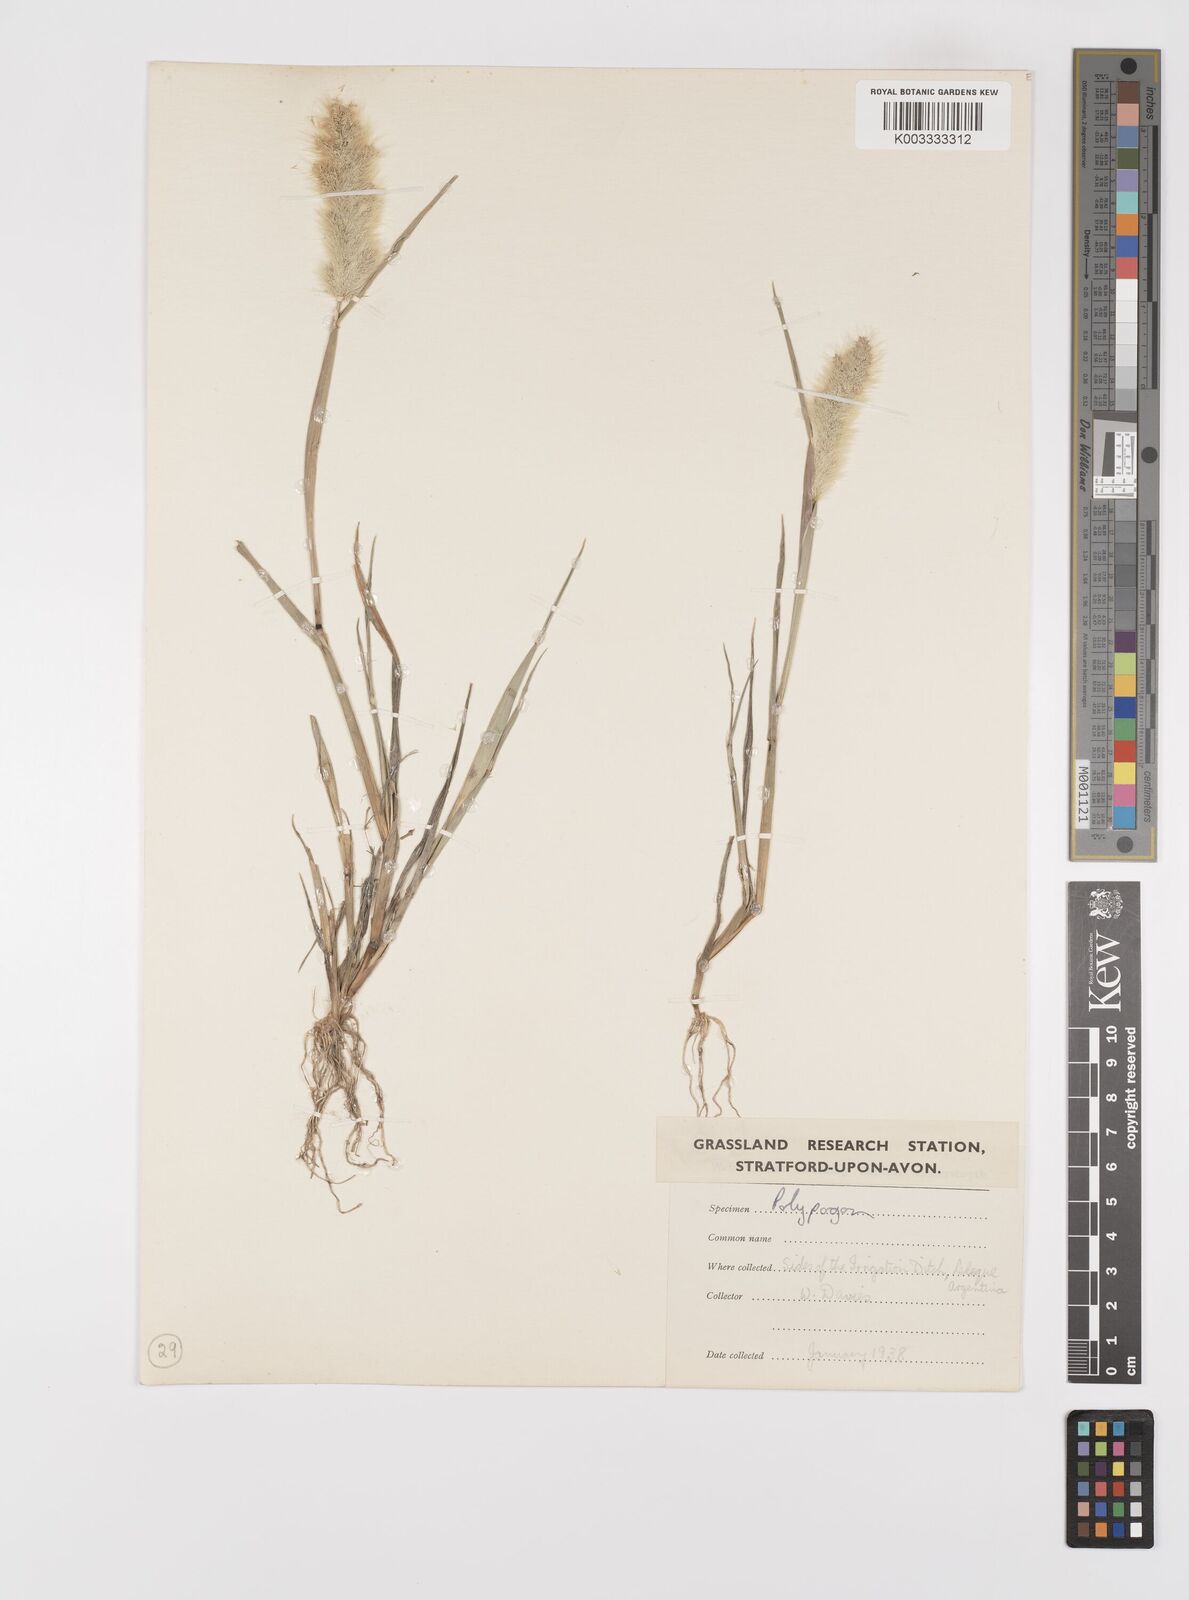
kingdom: Plantae
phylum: Tracheophyta
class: Liliopsida
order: Poales
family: Poaceae
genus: Polypogon
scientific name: Polypogon monspeliensis
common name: Annual rabbitsfoot grass
